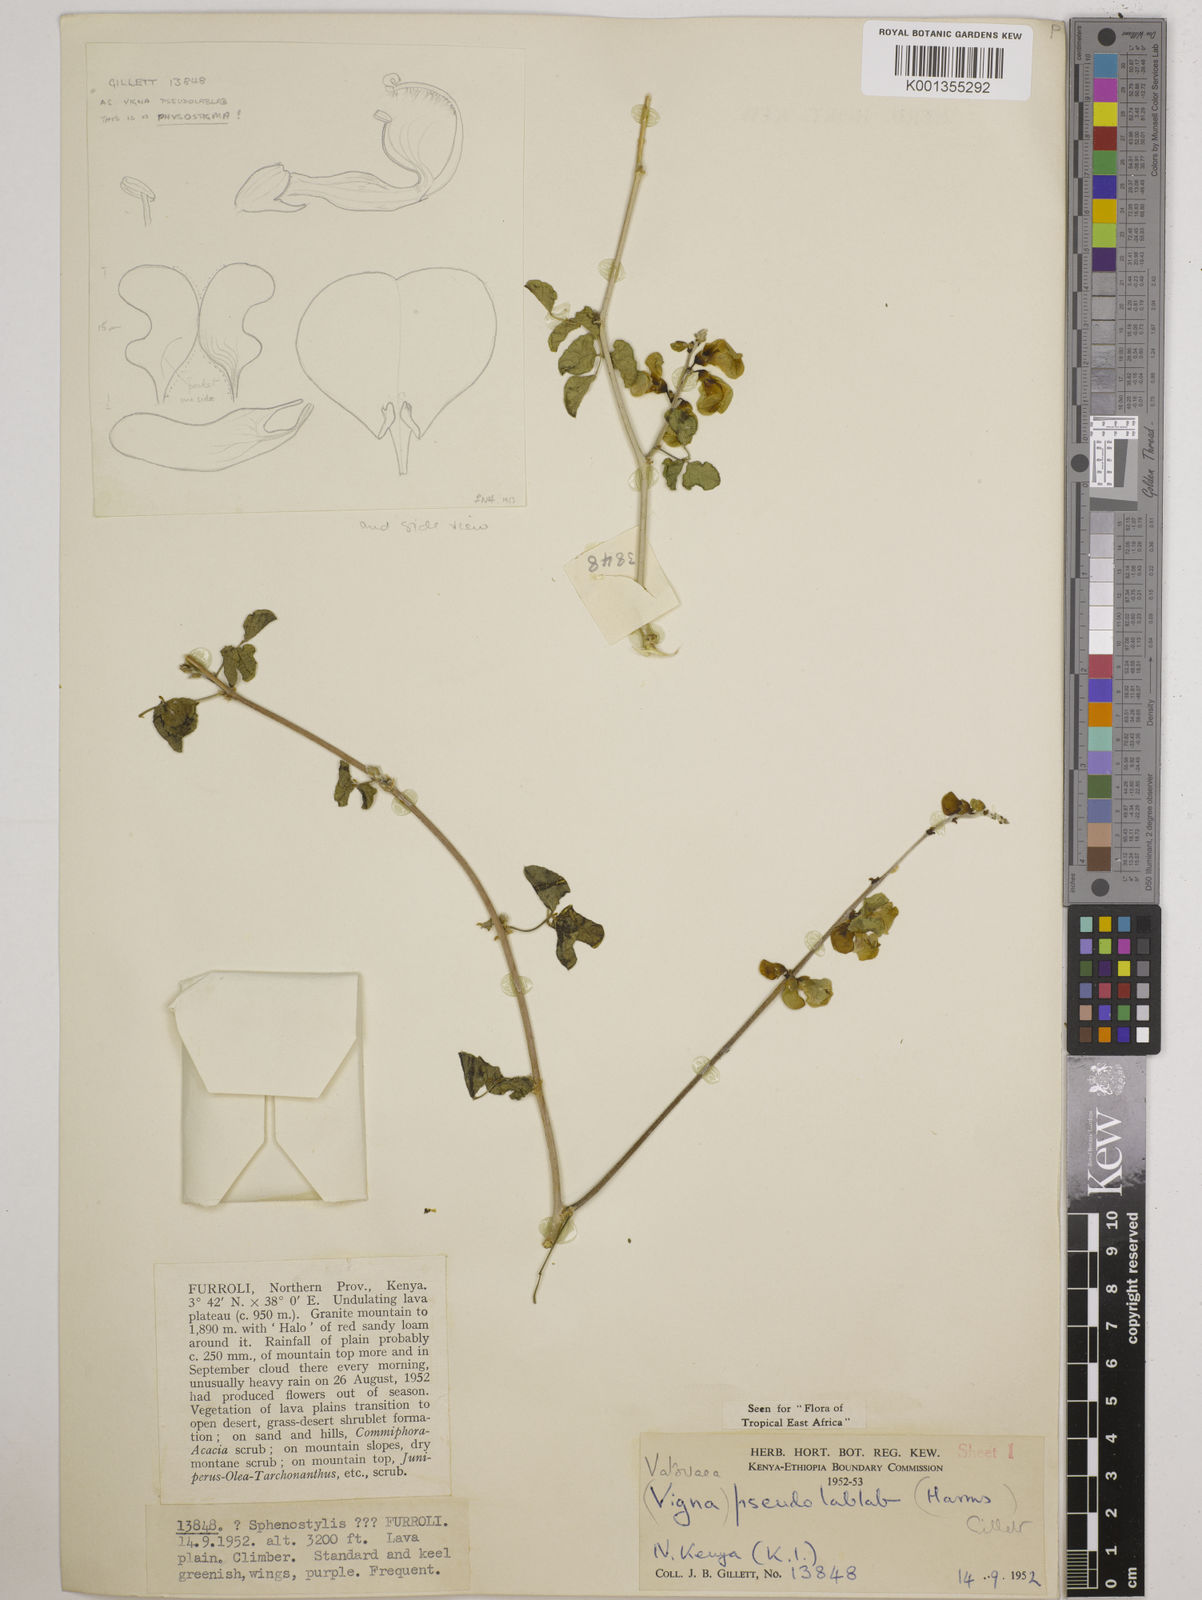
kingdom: Plantae
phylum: Tracheophyta
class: Magnoliopsida
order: Fabales
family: Fabaceae
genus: Vatovaea
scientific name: Vatovaea pseudolablab
